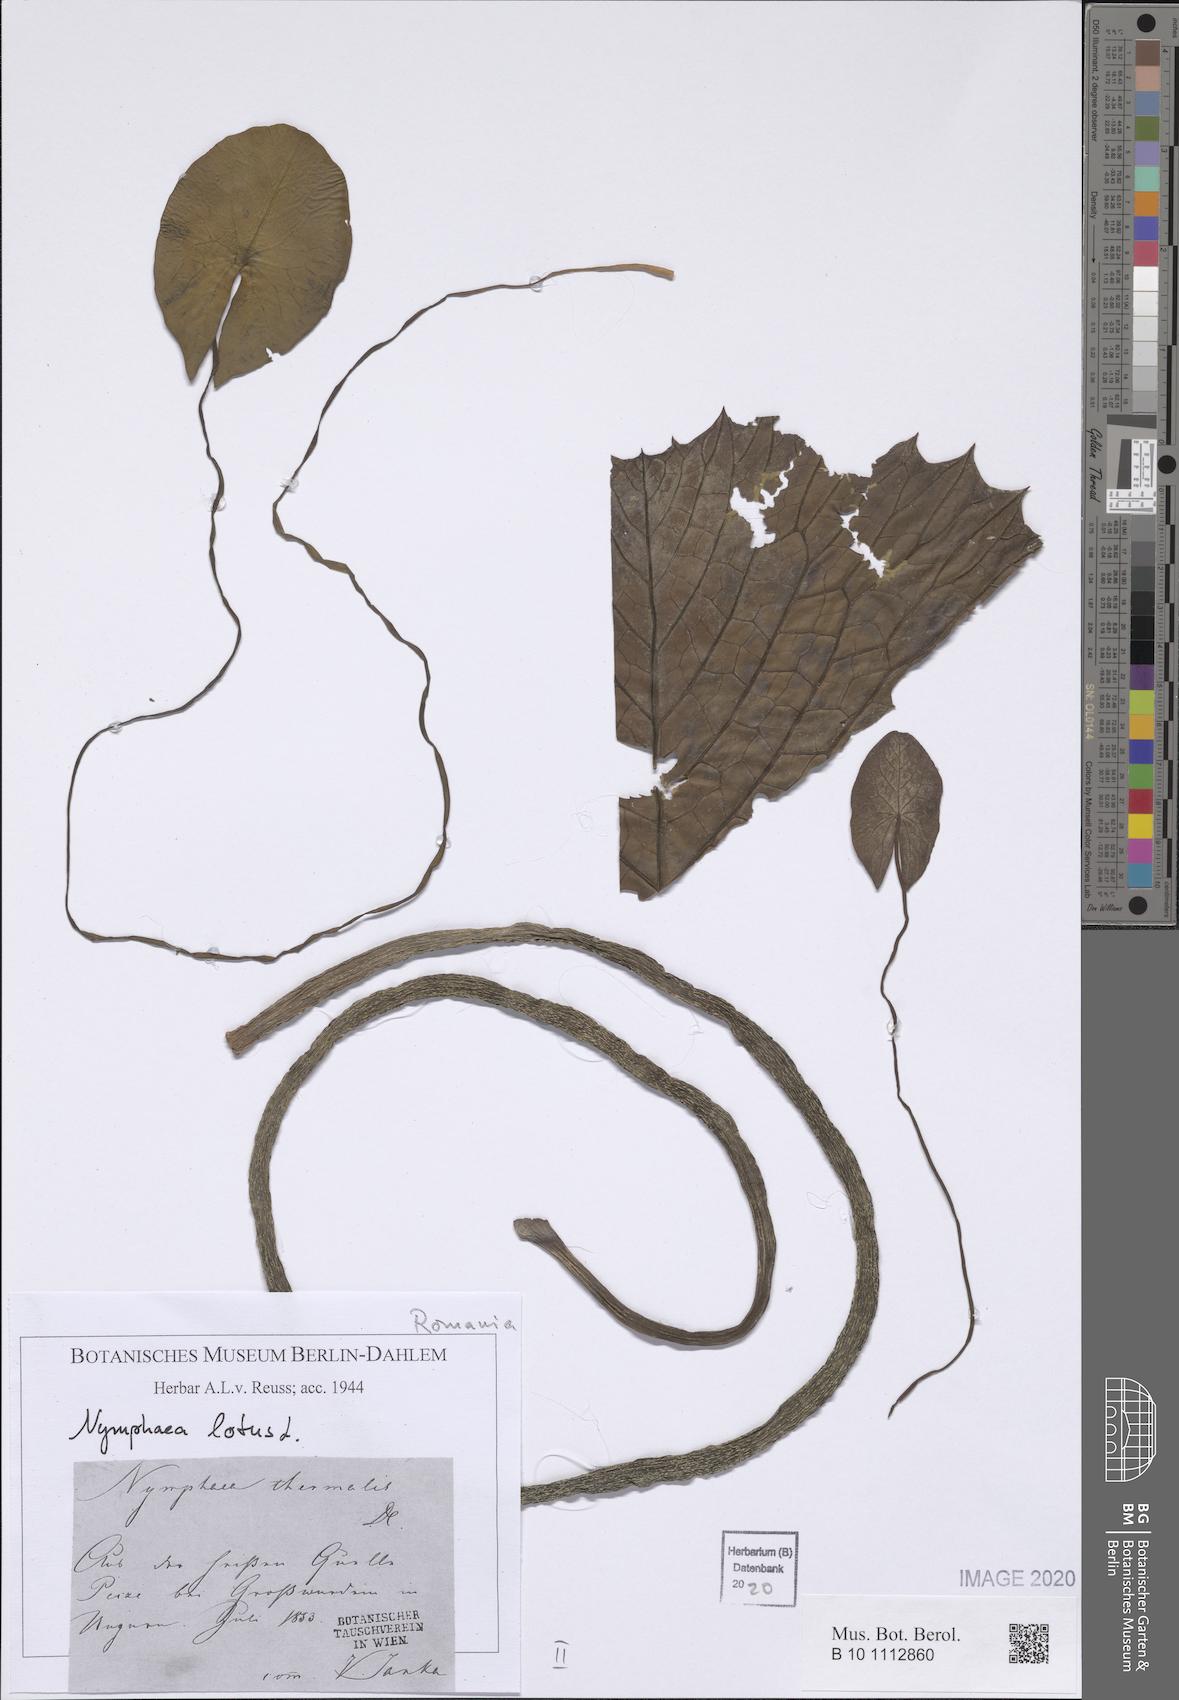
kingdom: Plantae
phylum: Tracheophyta
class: Magnoliopsida
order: Nymphaeales
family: Nymphaeaceae
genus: Nymphaea
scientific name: Nymphaea lotus
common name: White egyptian lotus
